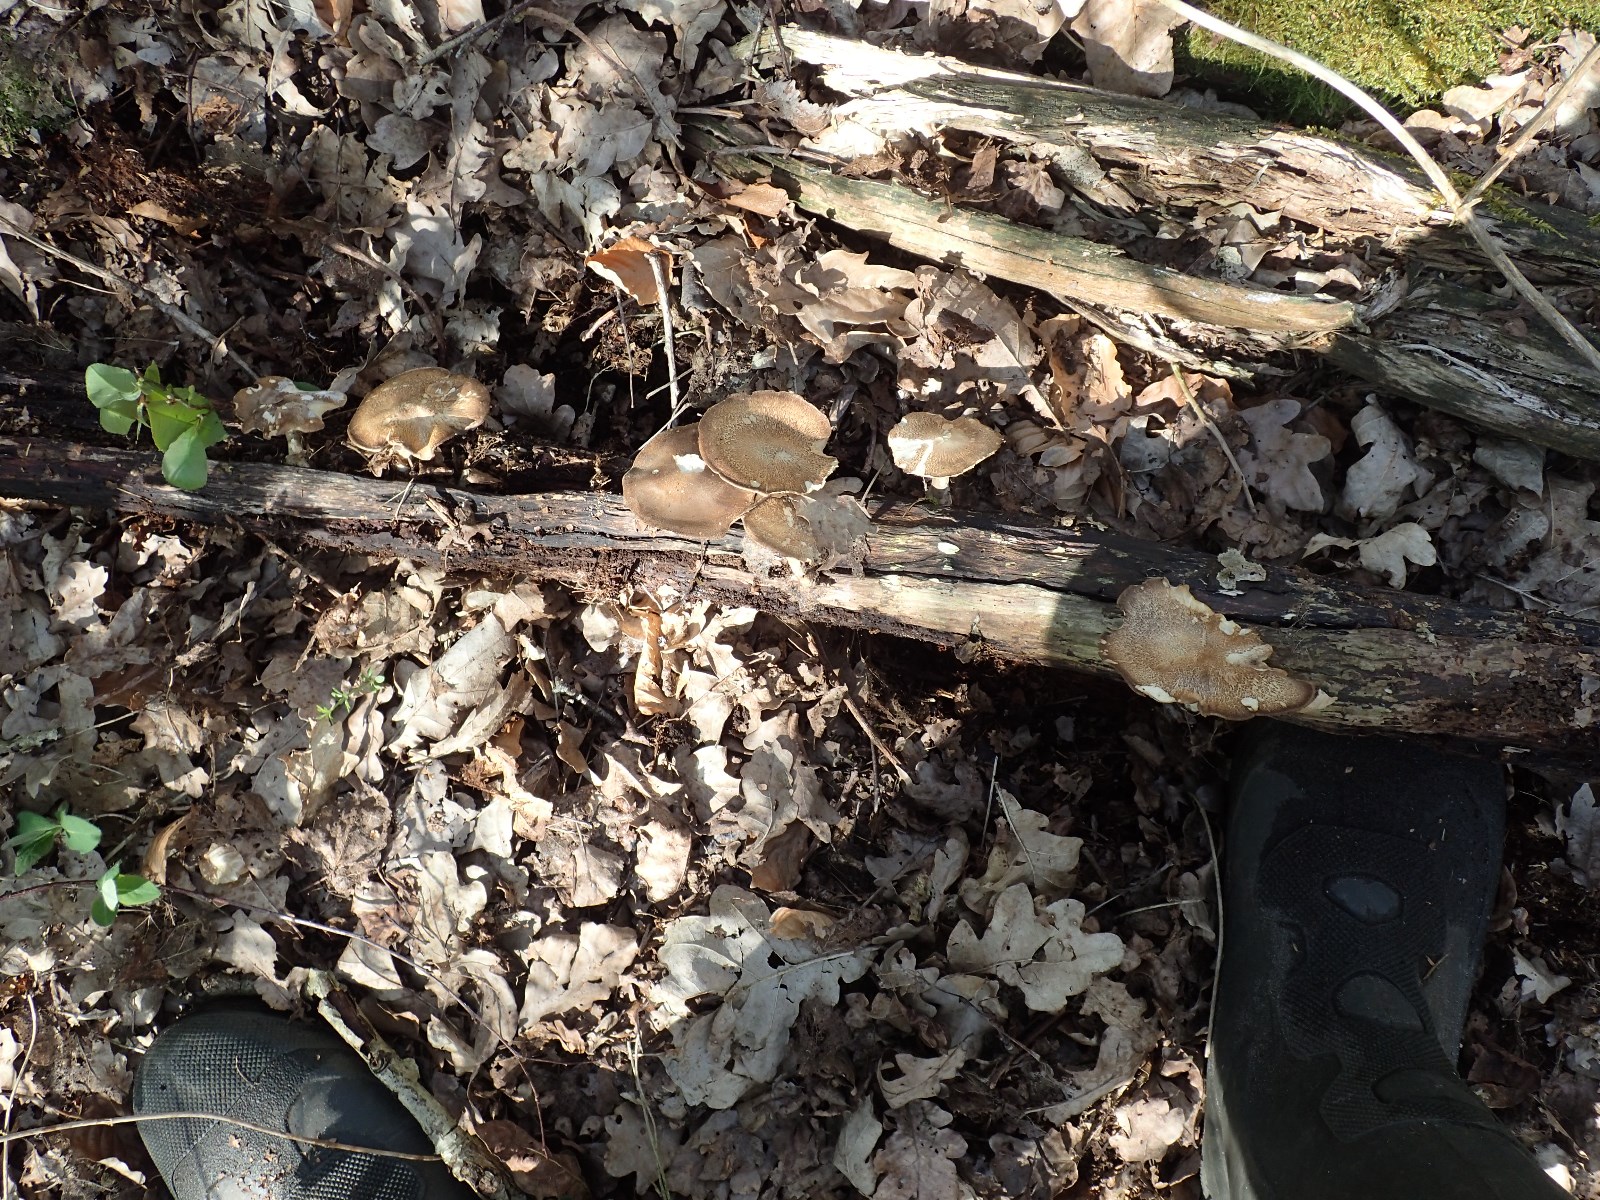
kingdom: Fungi
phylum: Basidiomycota
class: Agaricomycetes
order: Polyporales
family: Polyporaceae
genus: Lentinus
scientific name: Lentinus substrictus
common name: forårs-stilkporesvamp
